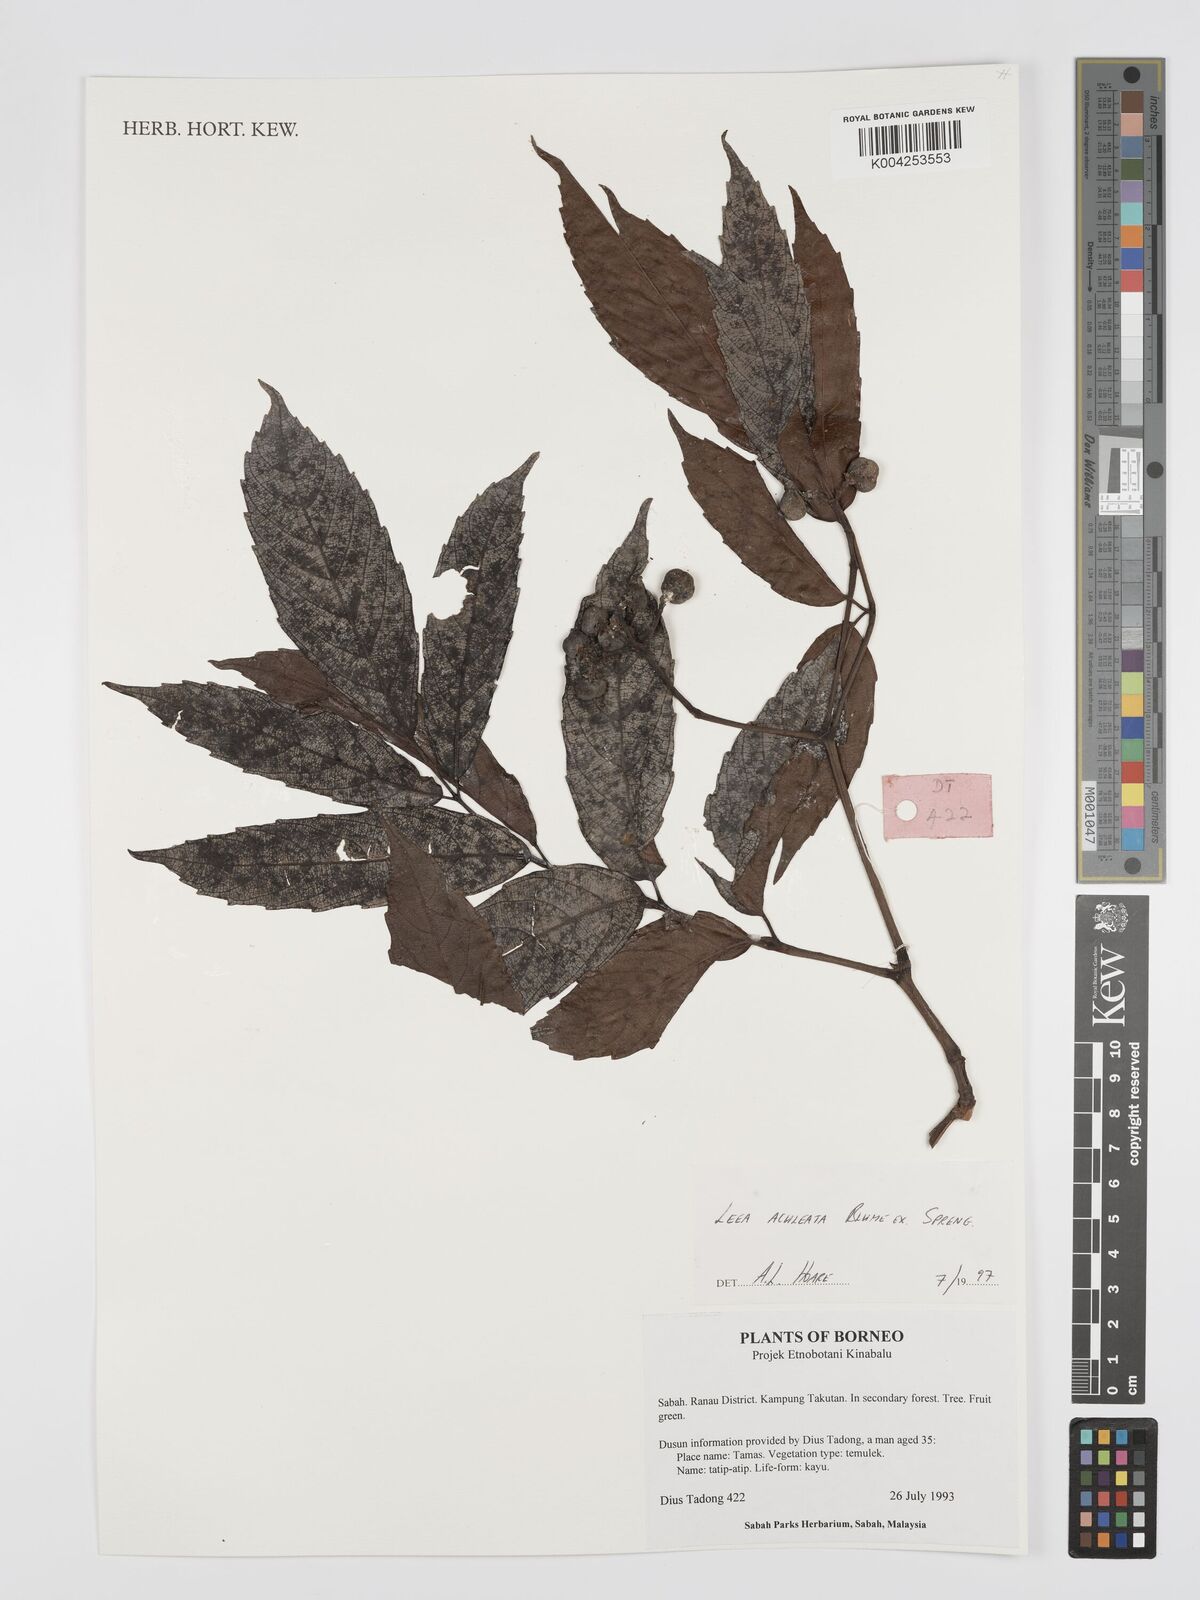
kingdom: Plantae
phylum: Tracheophyta
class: Magnoliopsida
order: Vitales
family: Vitaceae
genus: Leea
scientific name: Leea aculeata
